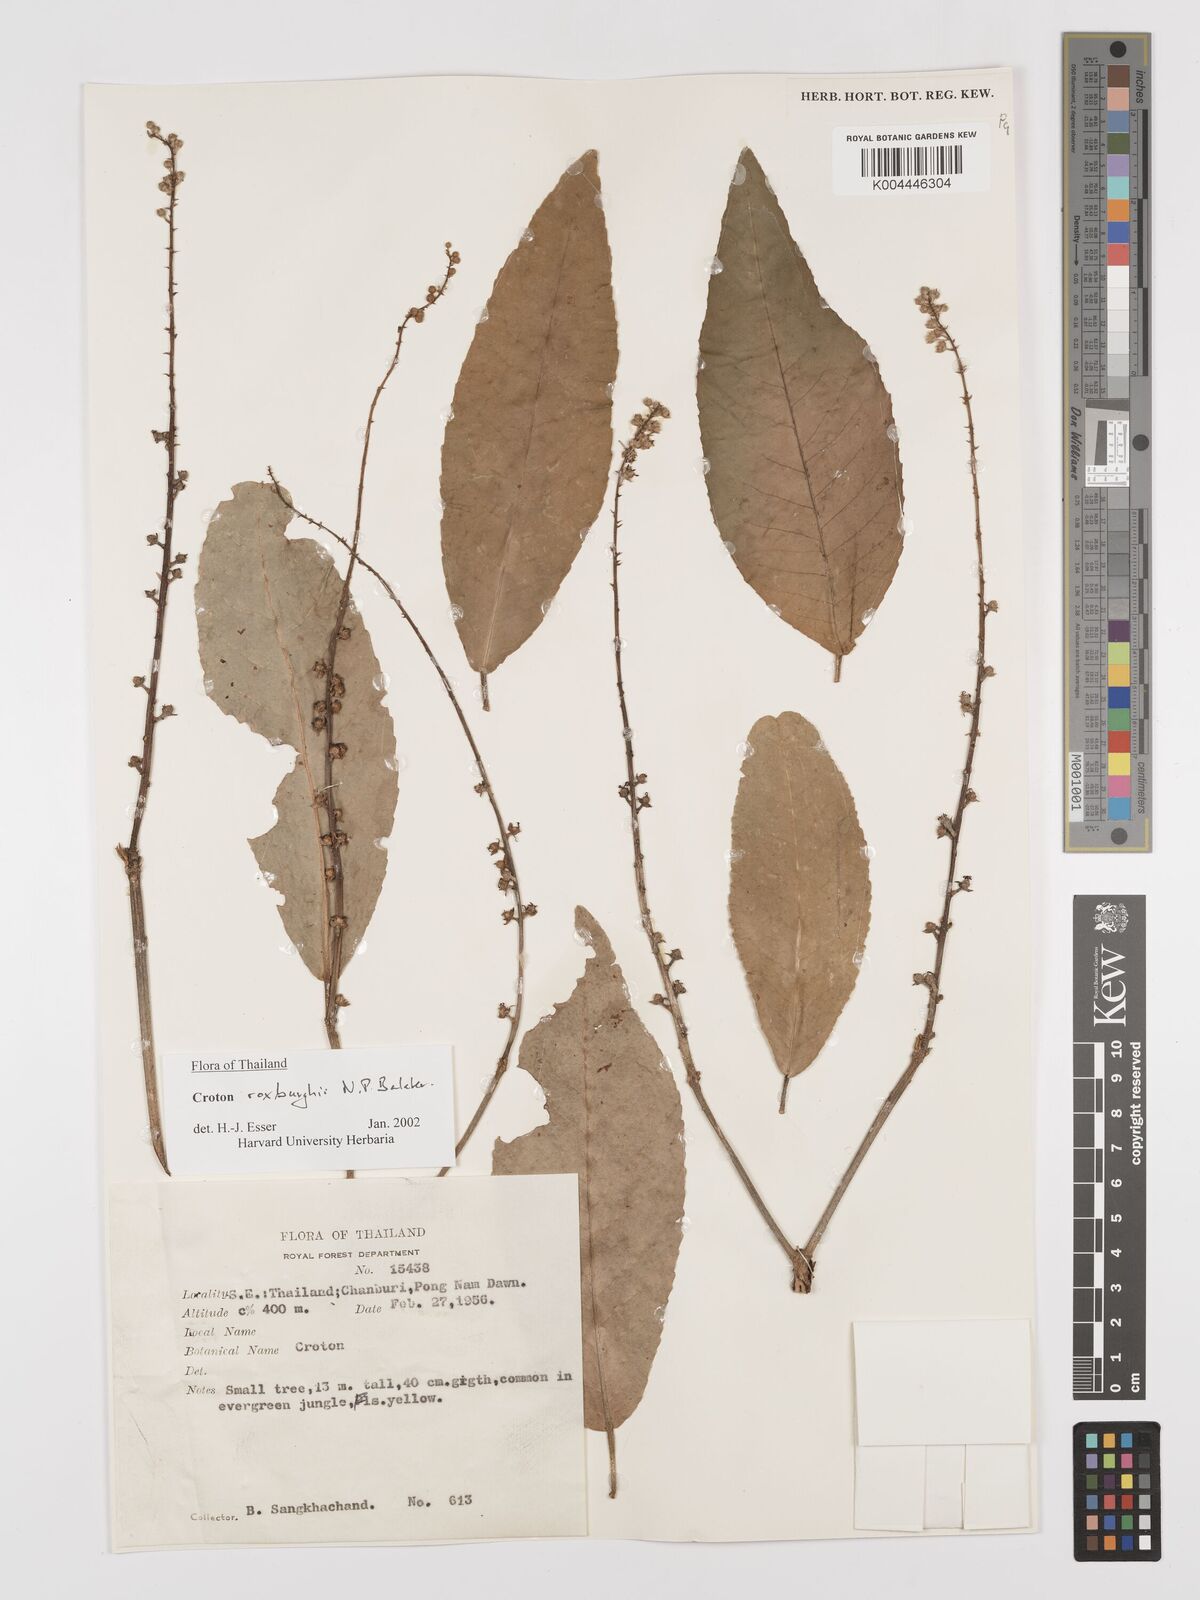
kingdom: Plantae
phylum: Tracheophyta
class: Magnoliopsida
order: Malpighiales
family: Euphorbiaceae
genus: Croton
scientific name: Croton
